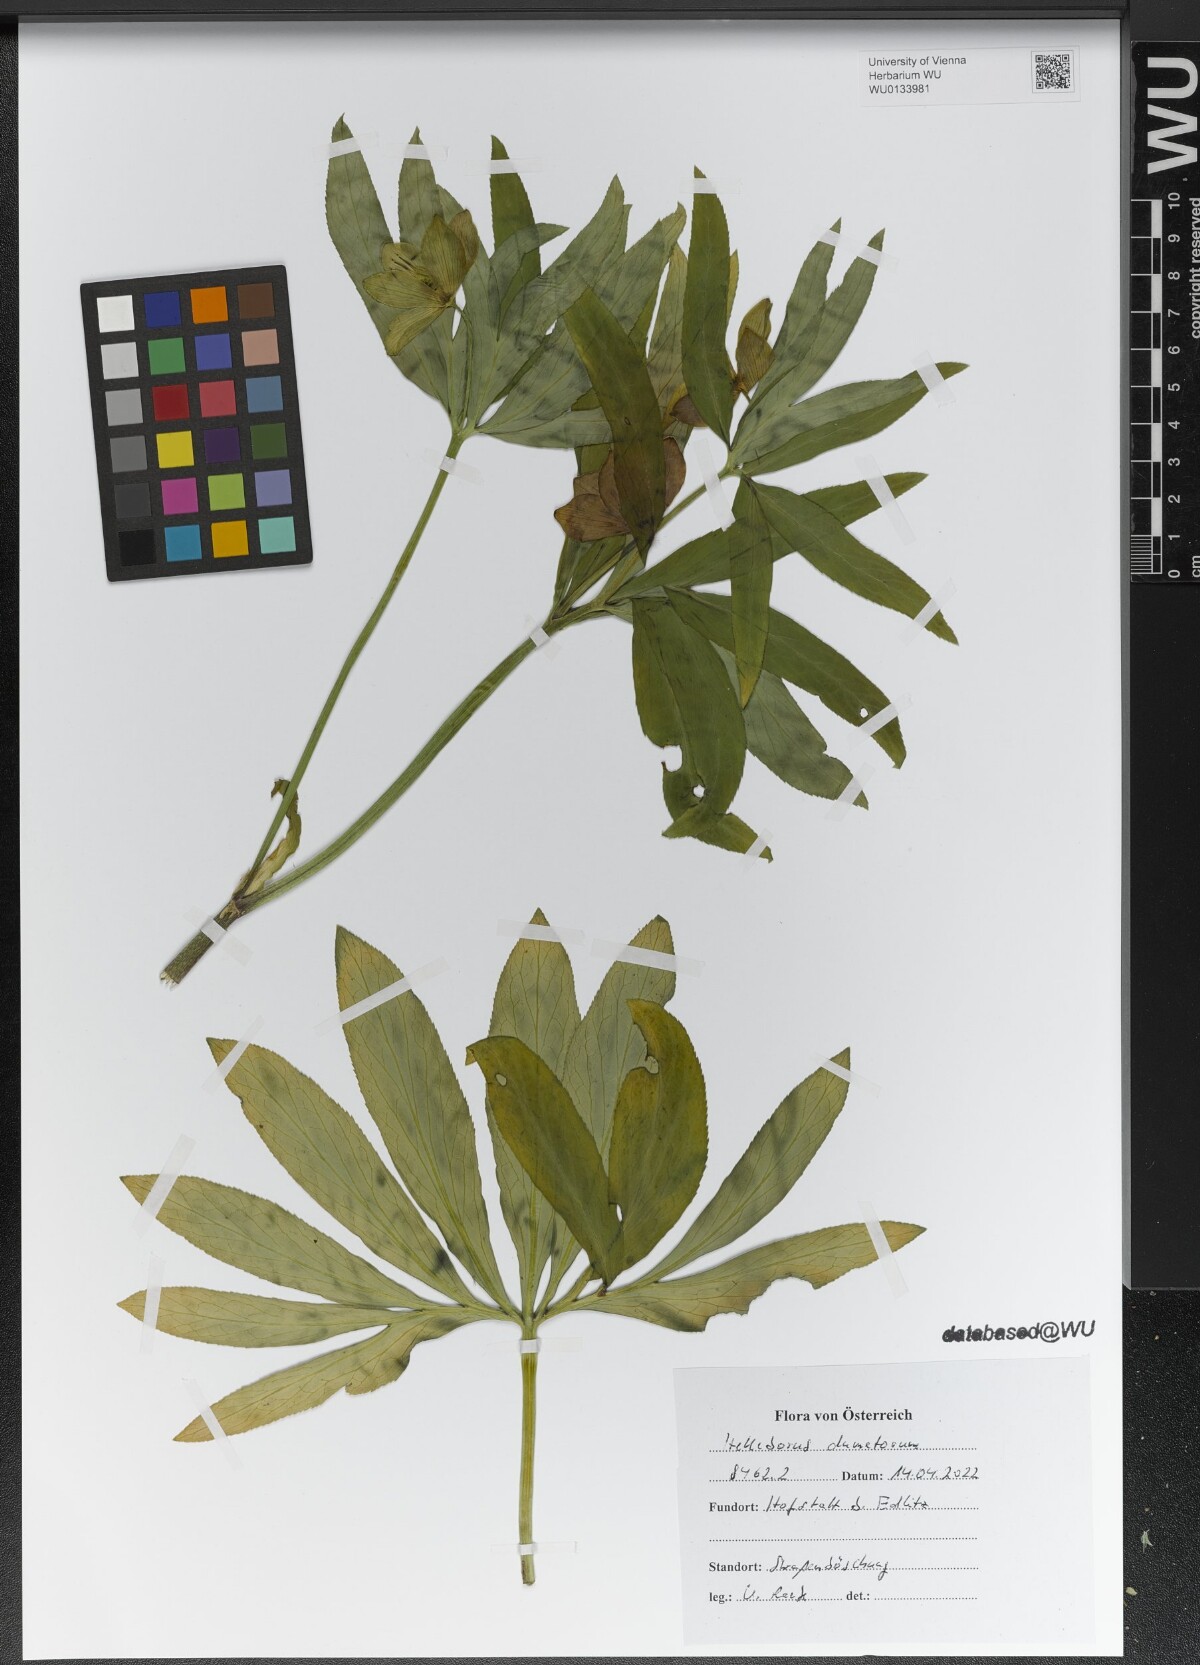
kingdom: Plantae
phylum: Tracheophyta
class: Magnoliopsida
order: Ranunculales
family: Ranunculaceae
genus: Helleborus
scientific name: Helleborus dumetorum
